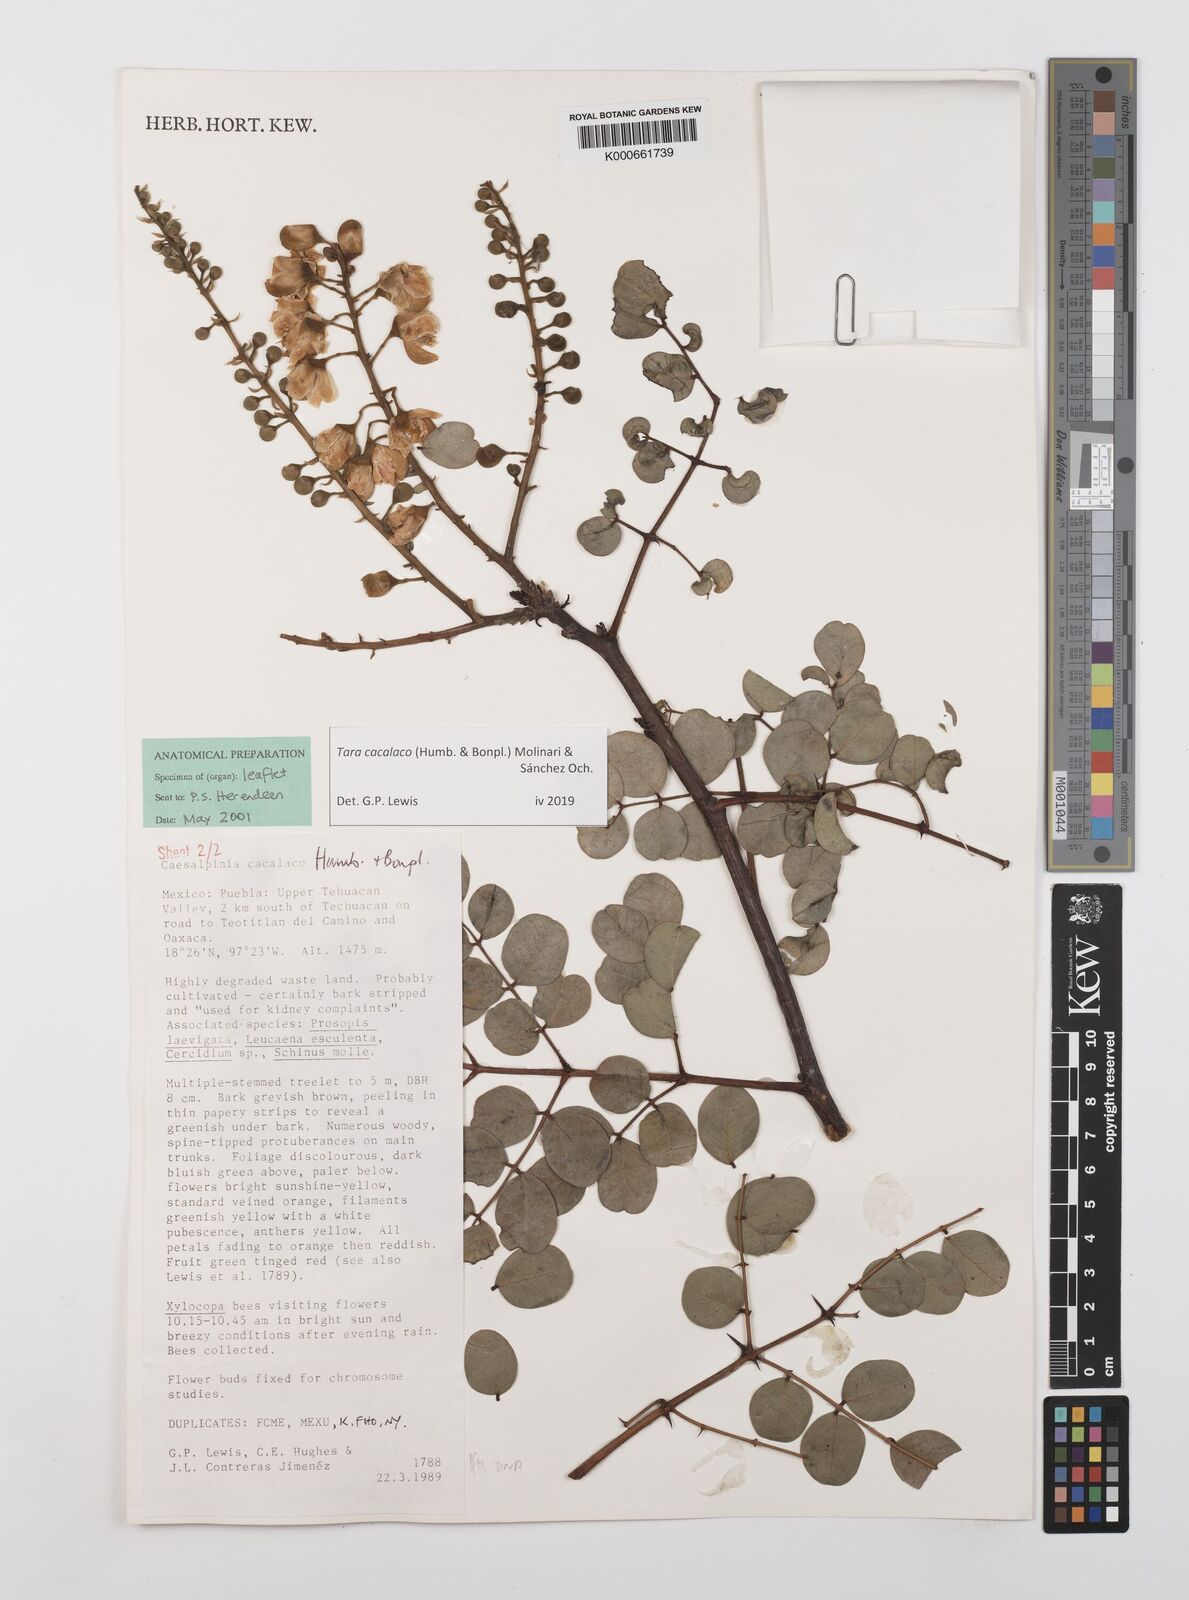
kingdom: Plantae
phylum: Tracheophyta
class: Magnoliopsida
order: Fabales
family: Fabaceae
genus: Tara
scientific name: Tara cacalaco
